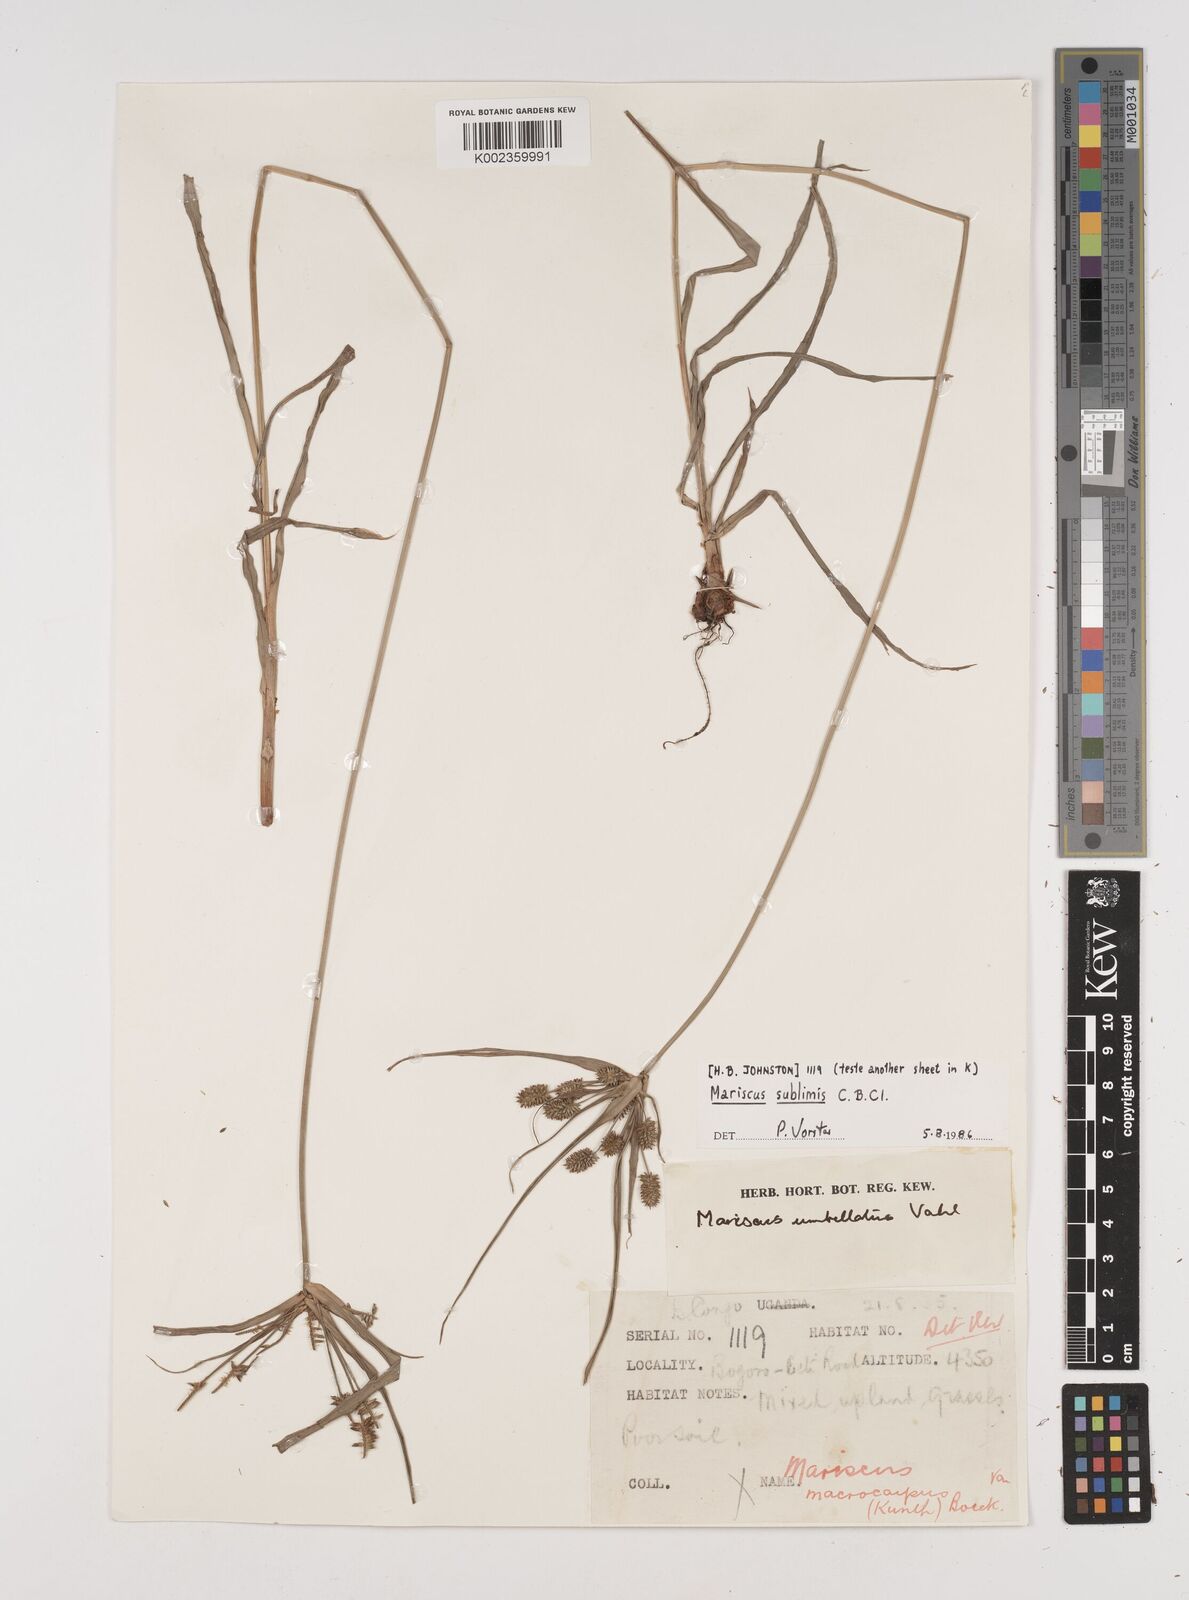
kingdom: Plantae
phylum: Tracheophyta
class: Liliopsida
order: Poales
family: Cyperaceae
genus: Cyperus
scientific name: Cyperus cyperoides
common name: Pacific island flat sedge
